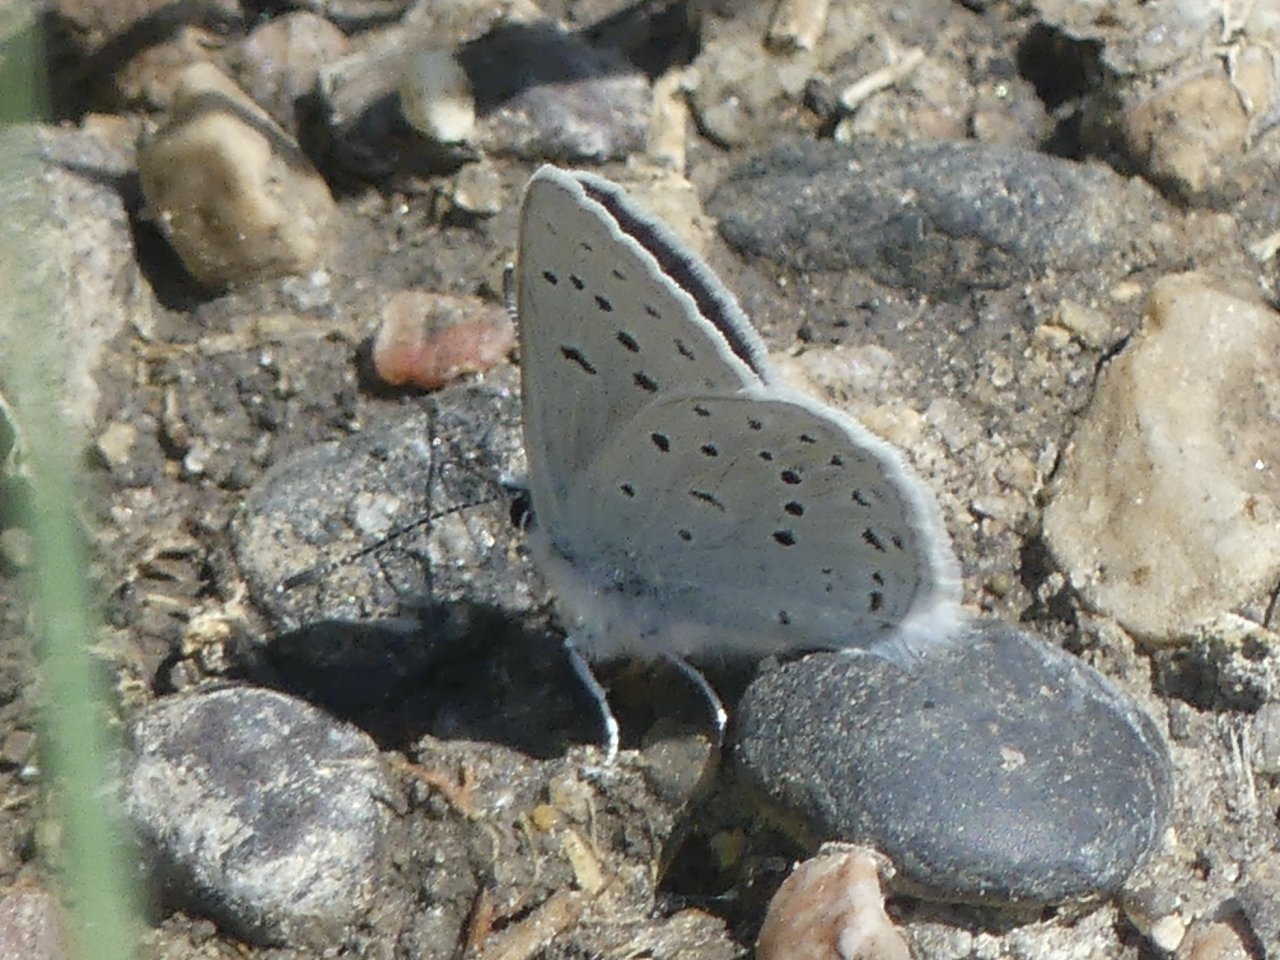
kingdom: Animalia
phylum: Arthropoda
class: Insecta
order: Lepidoptera
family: Lycaenidae
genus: Plebejus
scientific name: Plebejus saepiolus
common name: Greenish Blue
